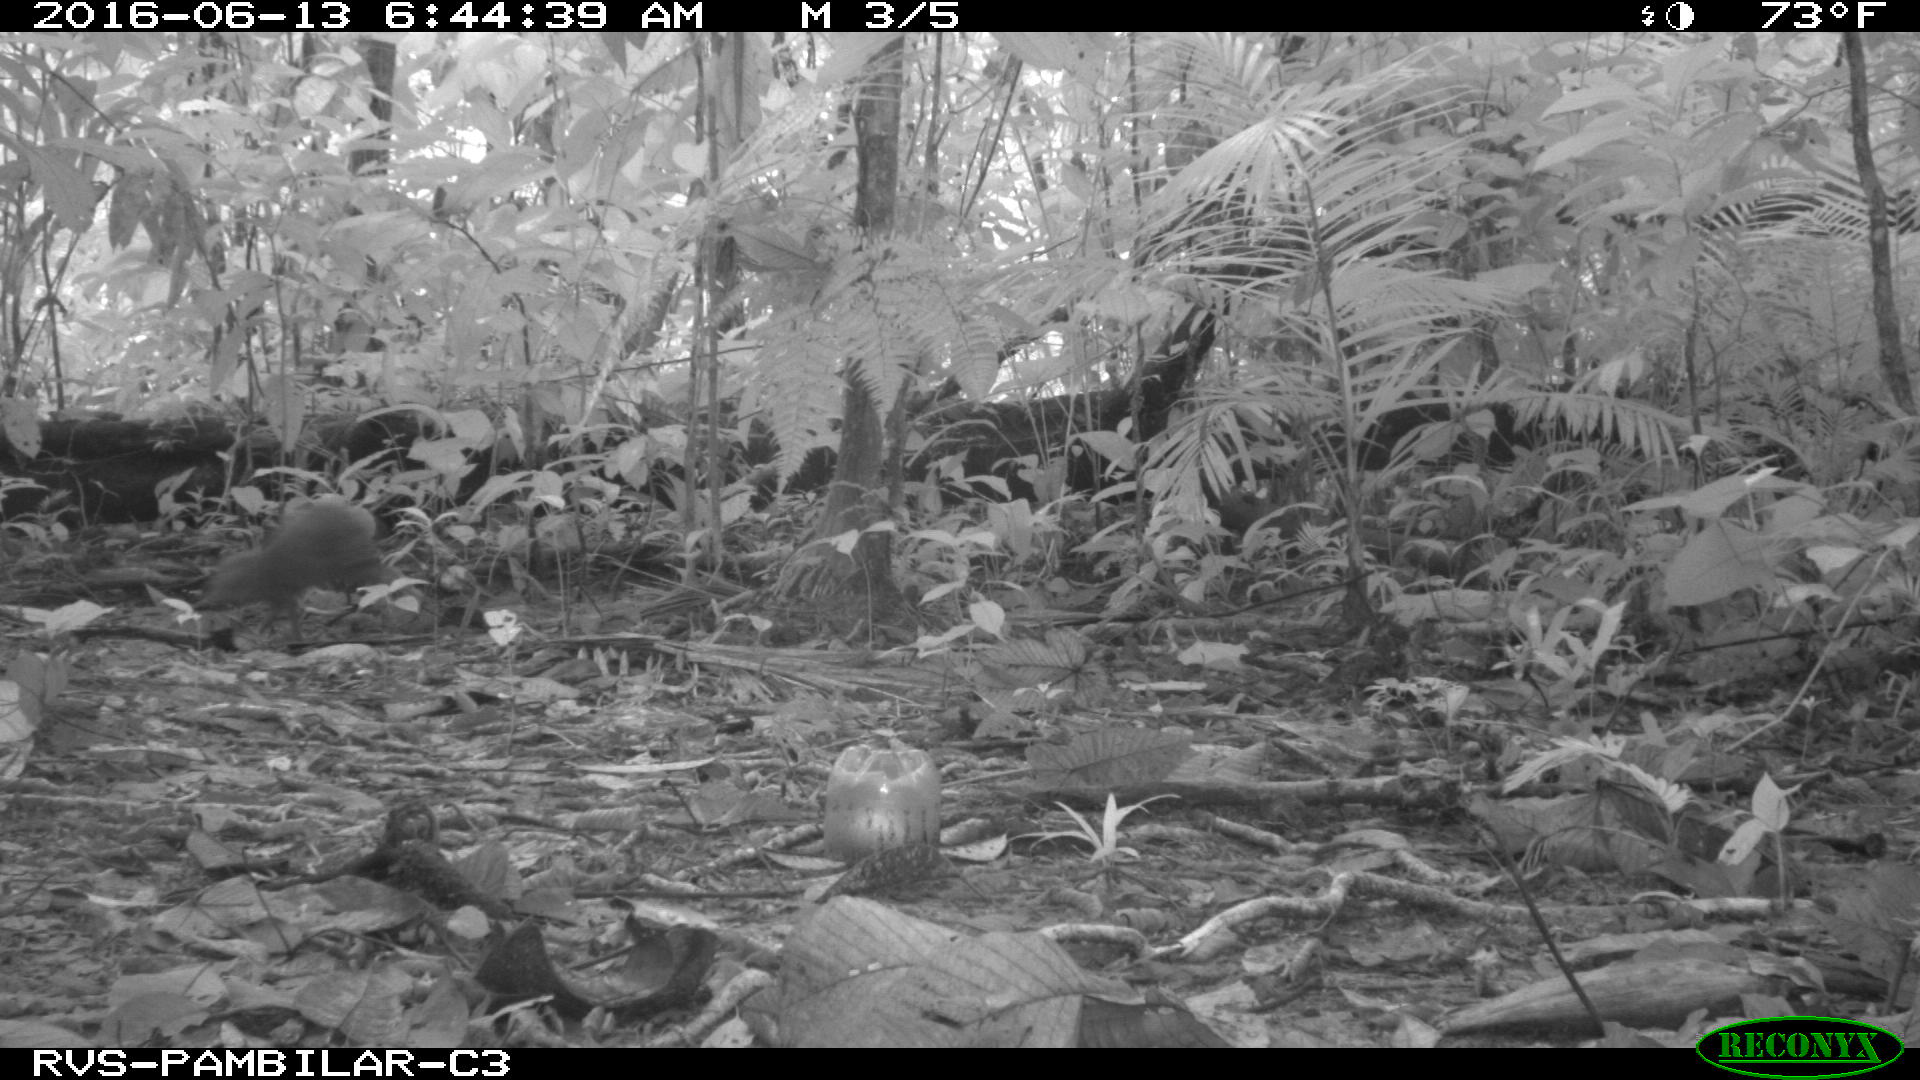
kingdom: Animalia
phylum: Chordata
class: Mammalia
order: Rodentia
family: Dasyproctidae
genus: Dasyprocta
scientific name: Dasyprocta punctata
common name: Central american agouti
